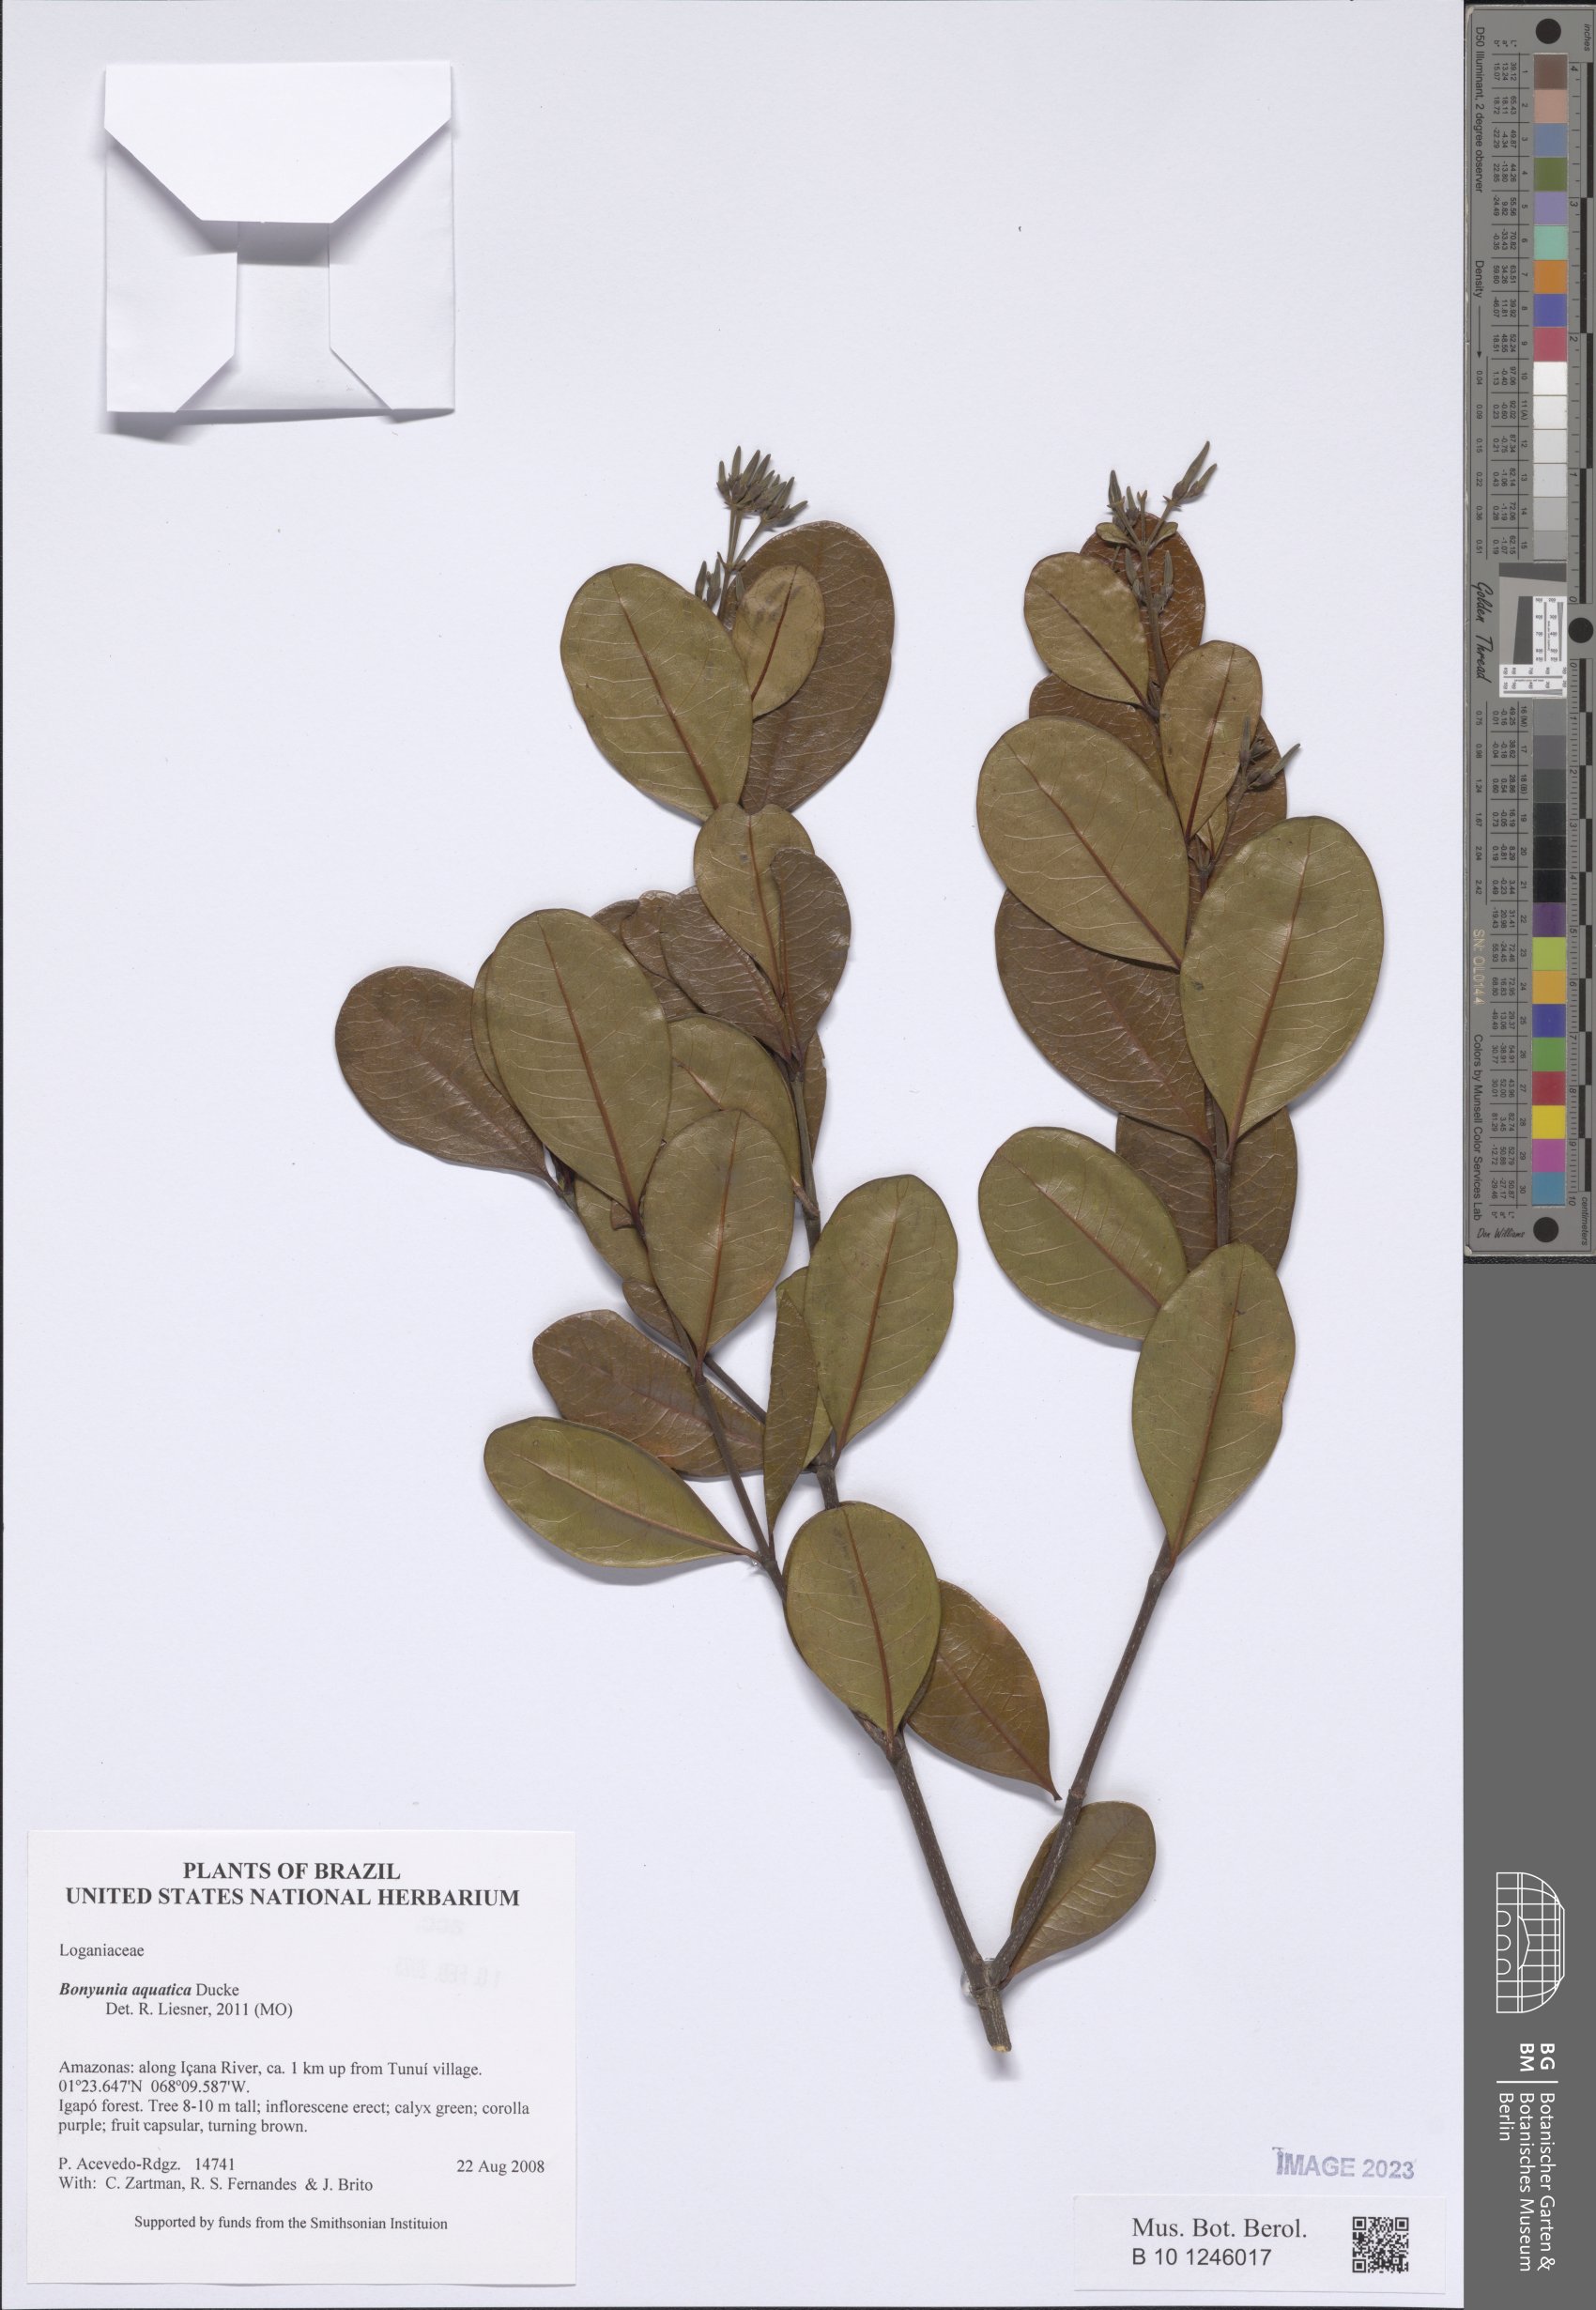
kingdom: Plantae
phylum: Tracheophyta
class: Magnoliopsida
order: Gentianales
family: Loganiaceae
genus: Bonyunia
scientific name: Bonyunia aquatica
